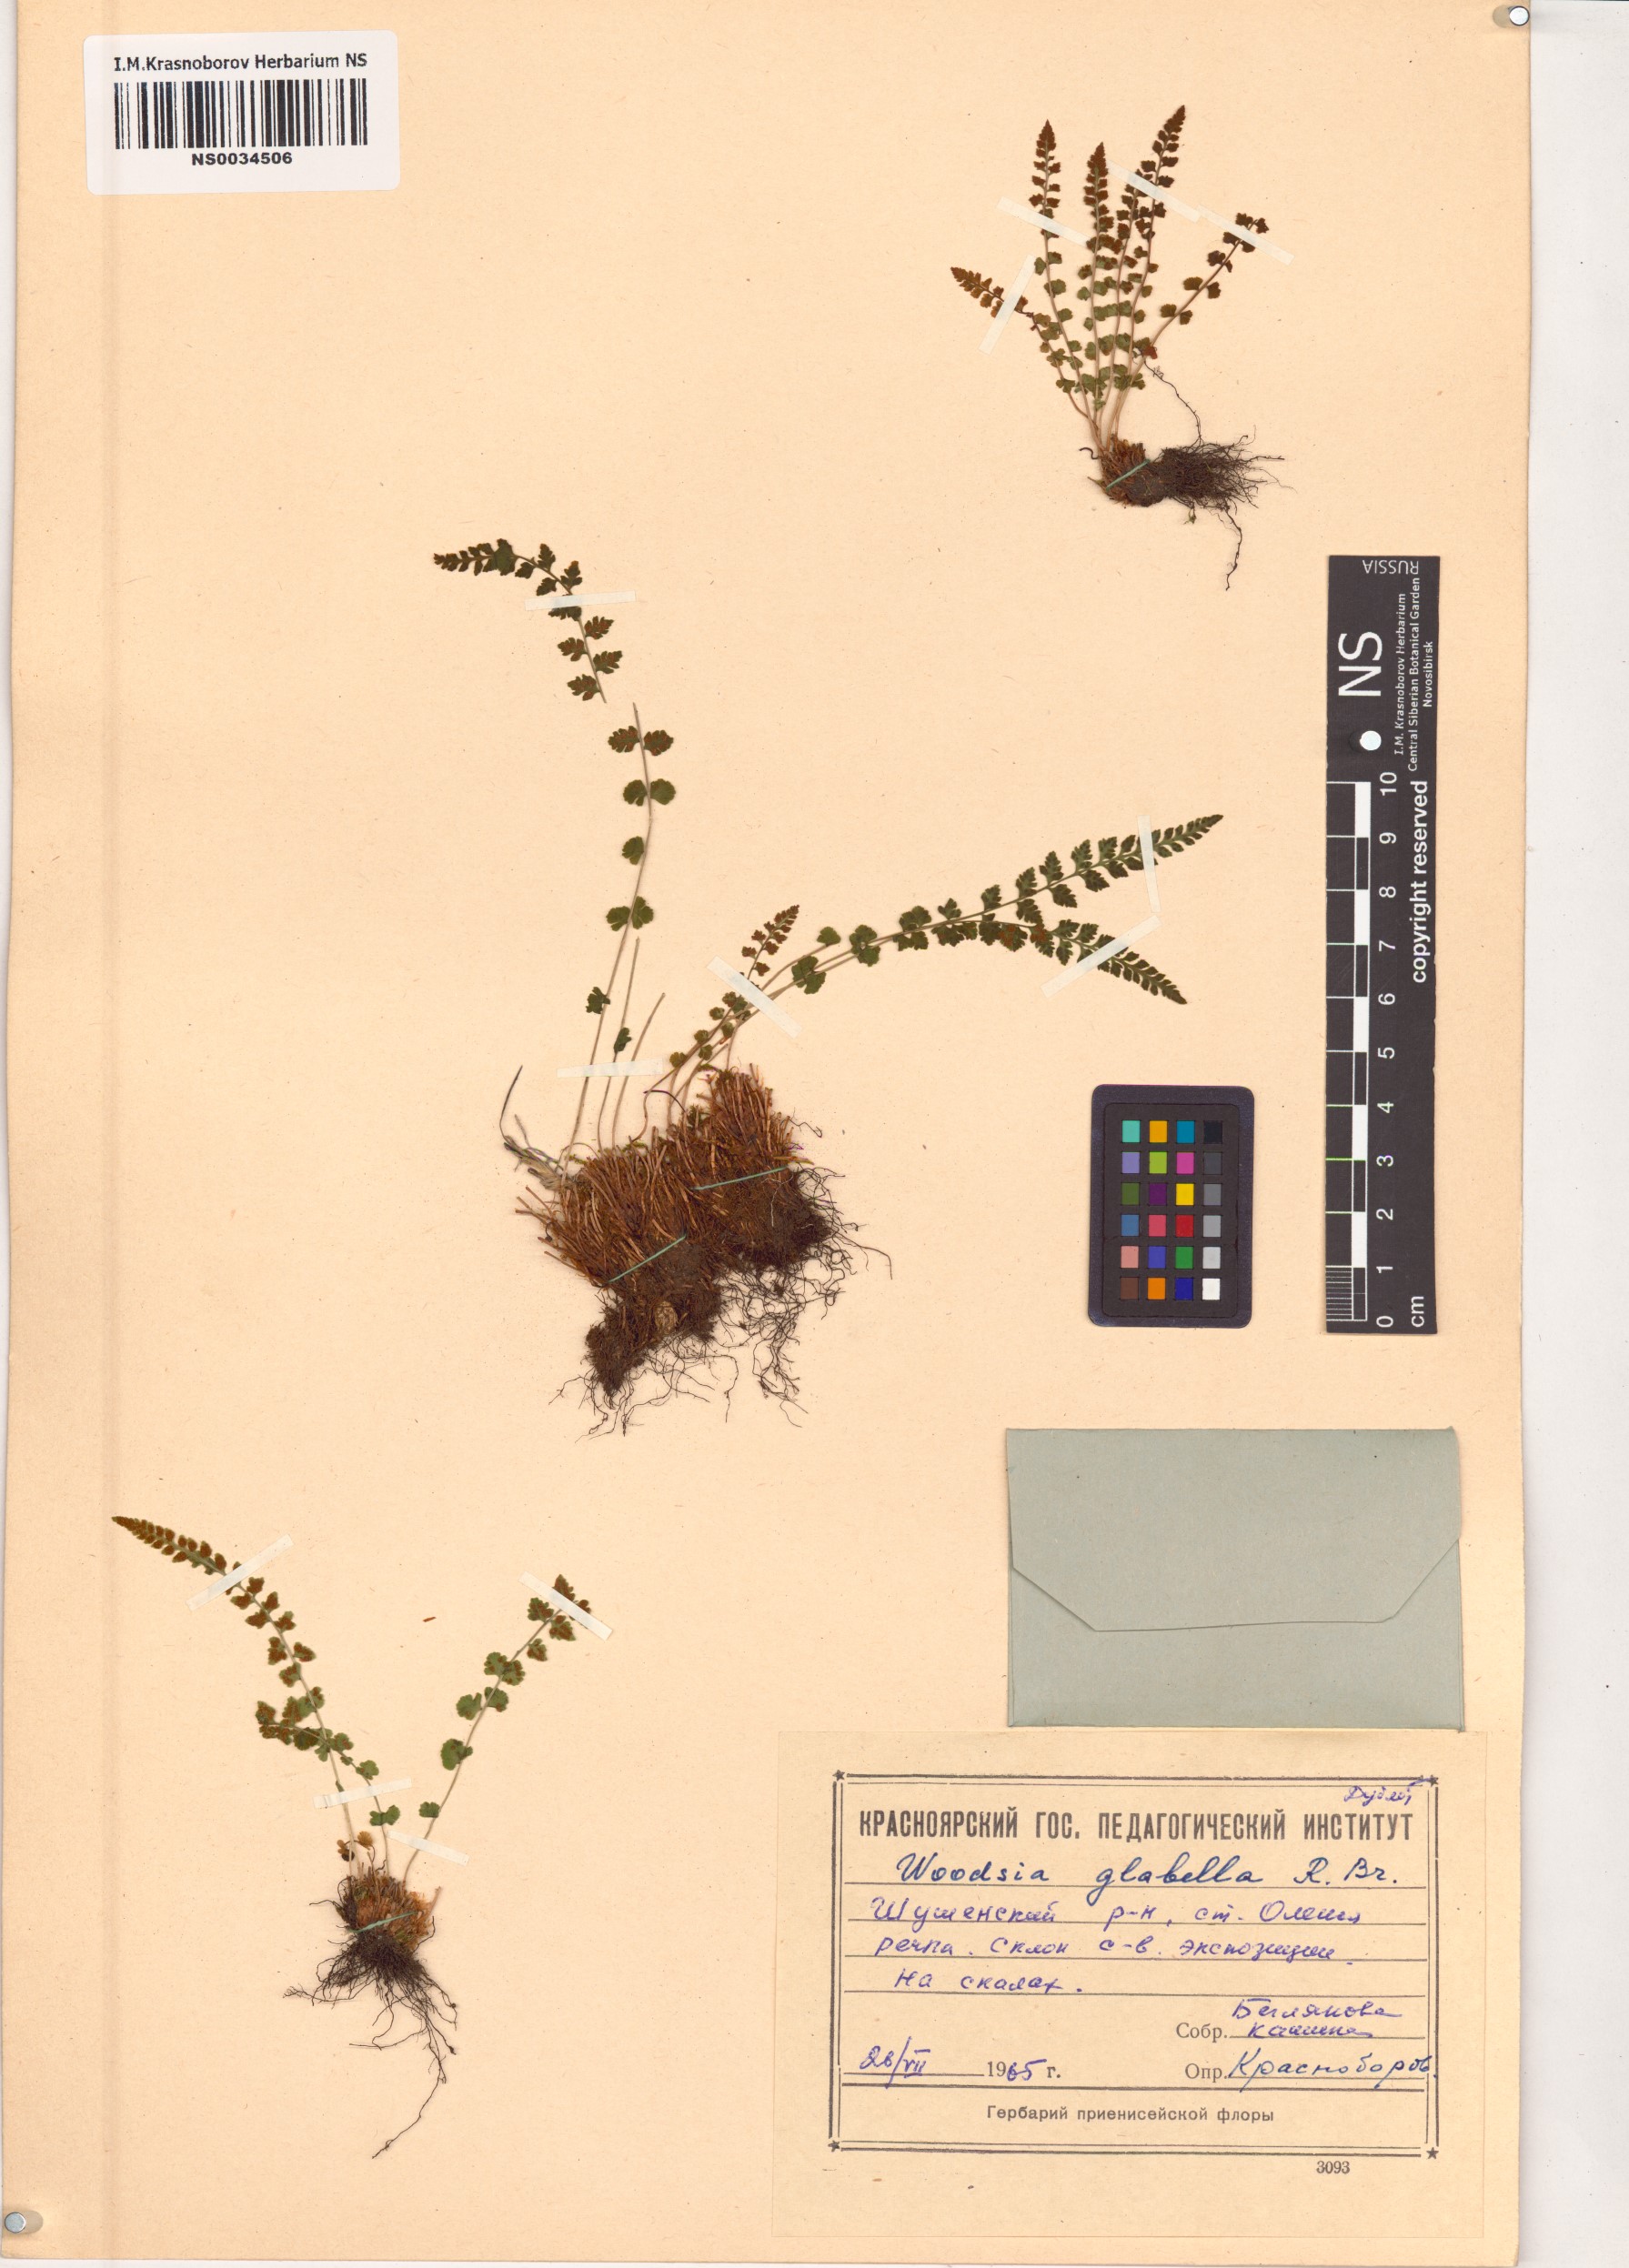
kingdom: Plantae
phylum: Tracheophyta
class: Polypodiopsida
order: Polypodiales
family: Woodsiaceae
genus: Woodsia
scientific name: Woodsia glabella
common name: Smooth woodsia
